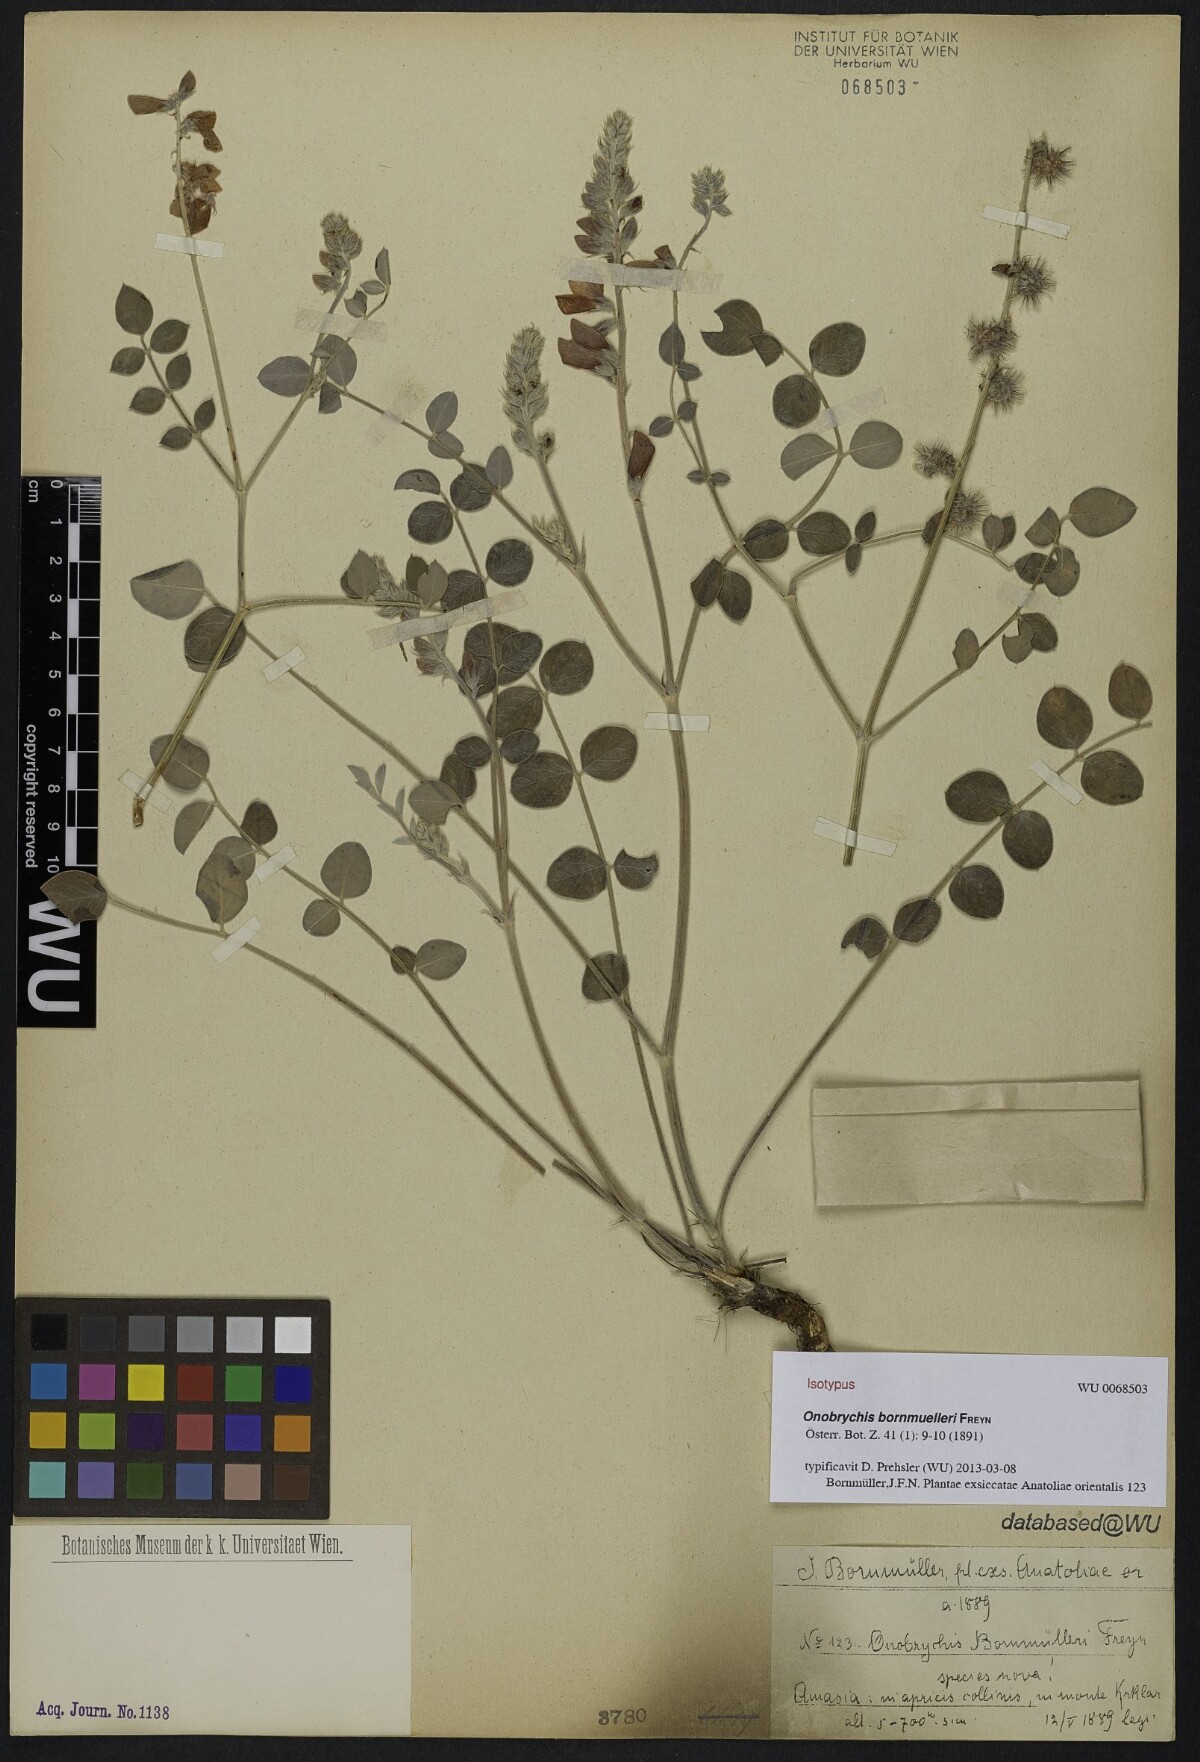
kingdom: Plantae
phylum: Tracheophyta
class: Magnoliopsida
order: Fabales
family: Fabaceae
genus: Onobrychis
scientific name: Onobrychis bornmuelleri
